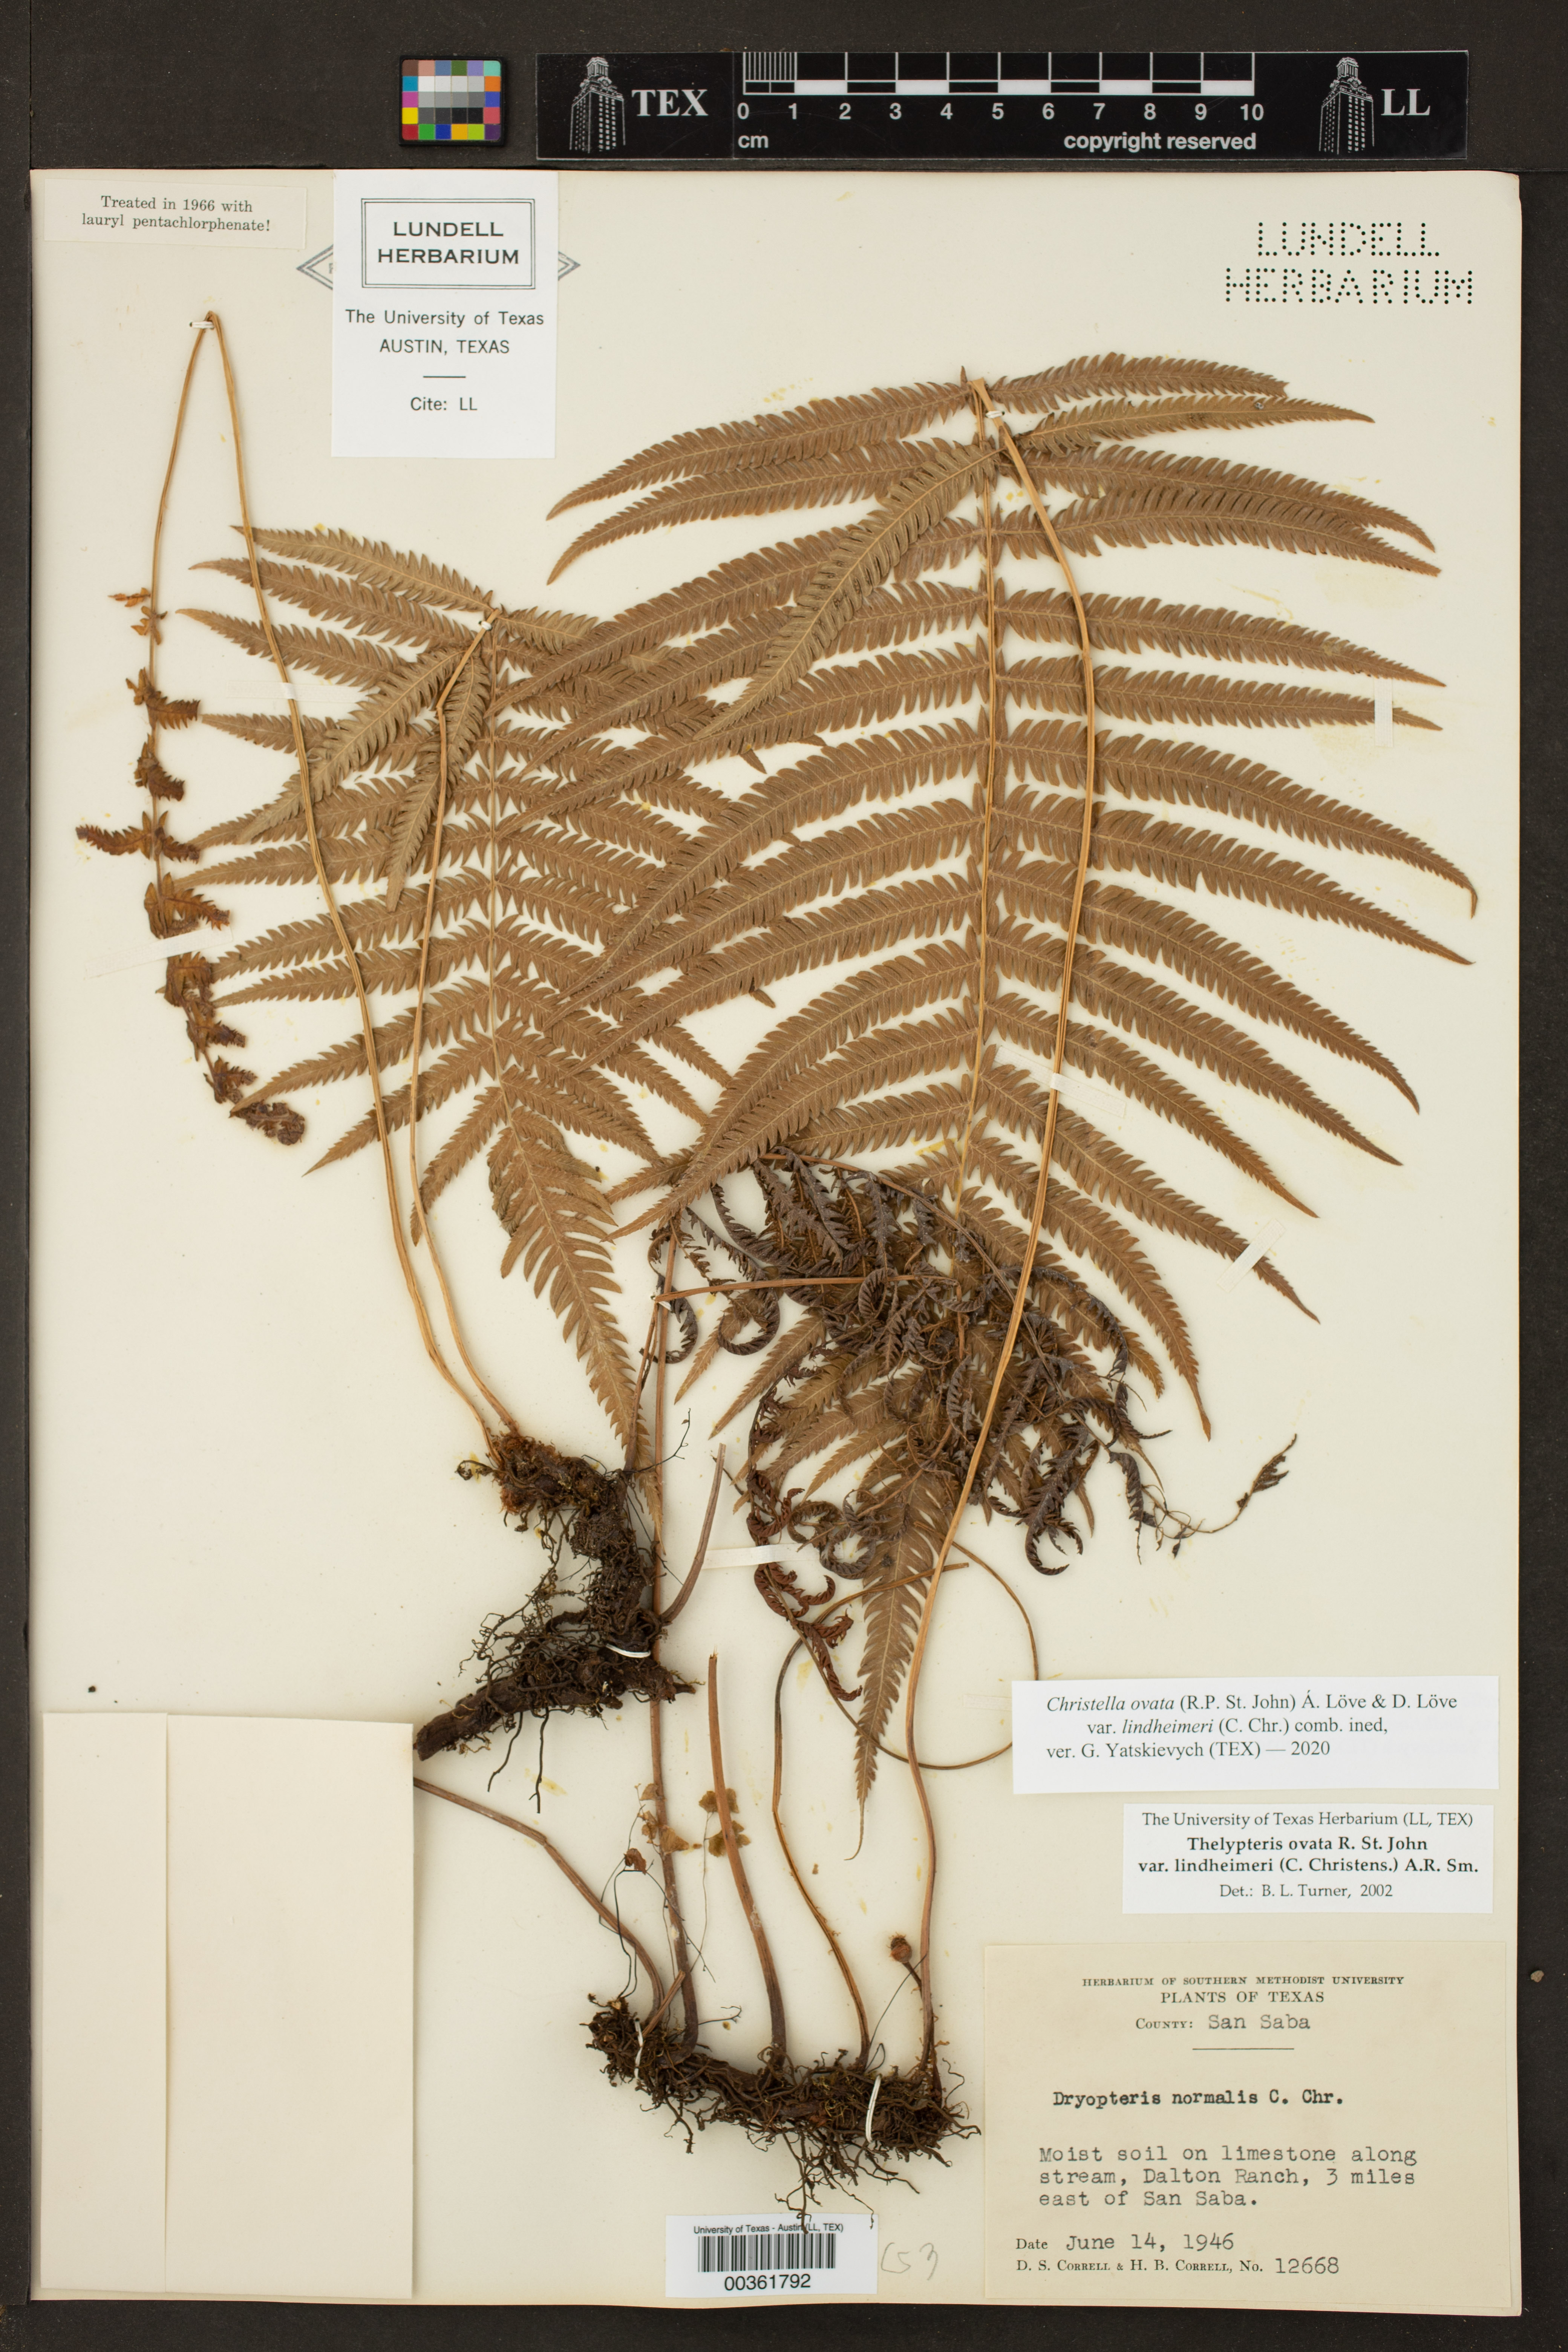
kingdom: Plantae
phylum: Tracheophyta
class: Polypodiopsida
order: Polypodiales
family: Thelypteridaceae
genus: Pelazoneuron
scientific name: Pelazoneuron ovatum
